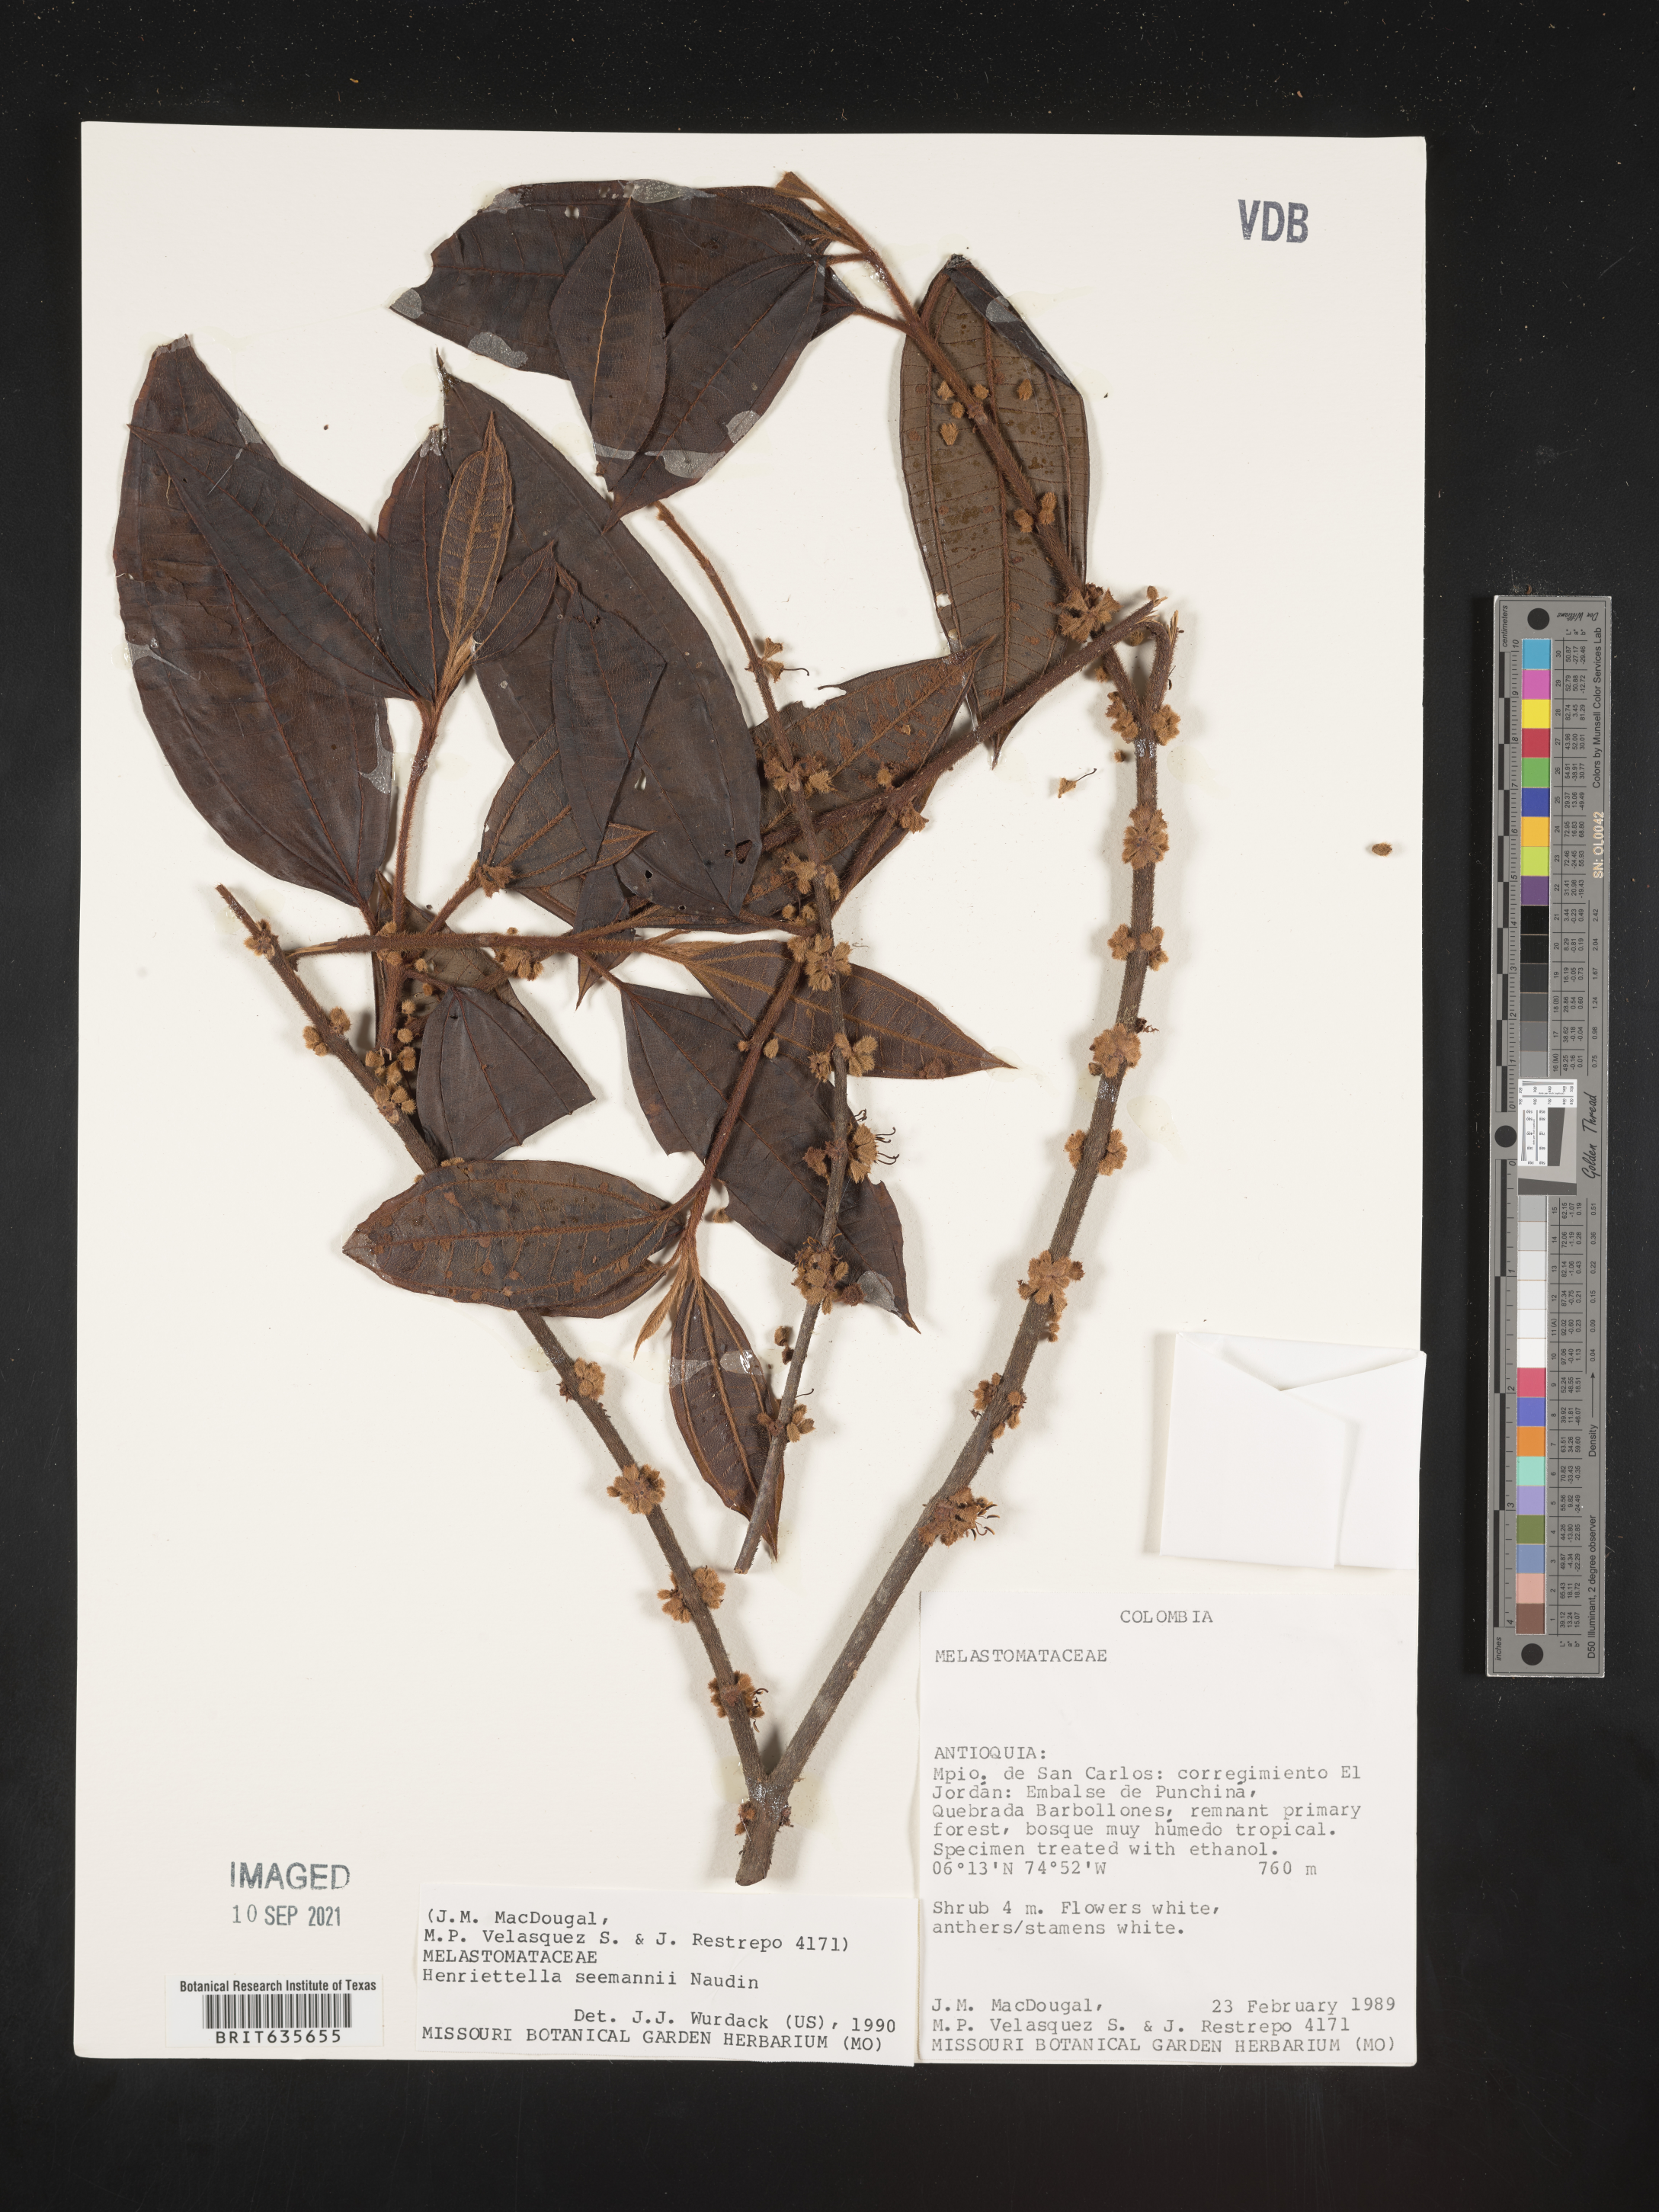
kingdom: Plantae
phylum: Tracheophyta
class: Magnoliopsida
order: Myrtales
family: Melastomataceae
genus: Henriettea
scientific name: Henriettea
